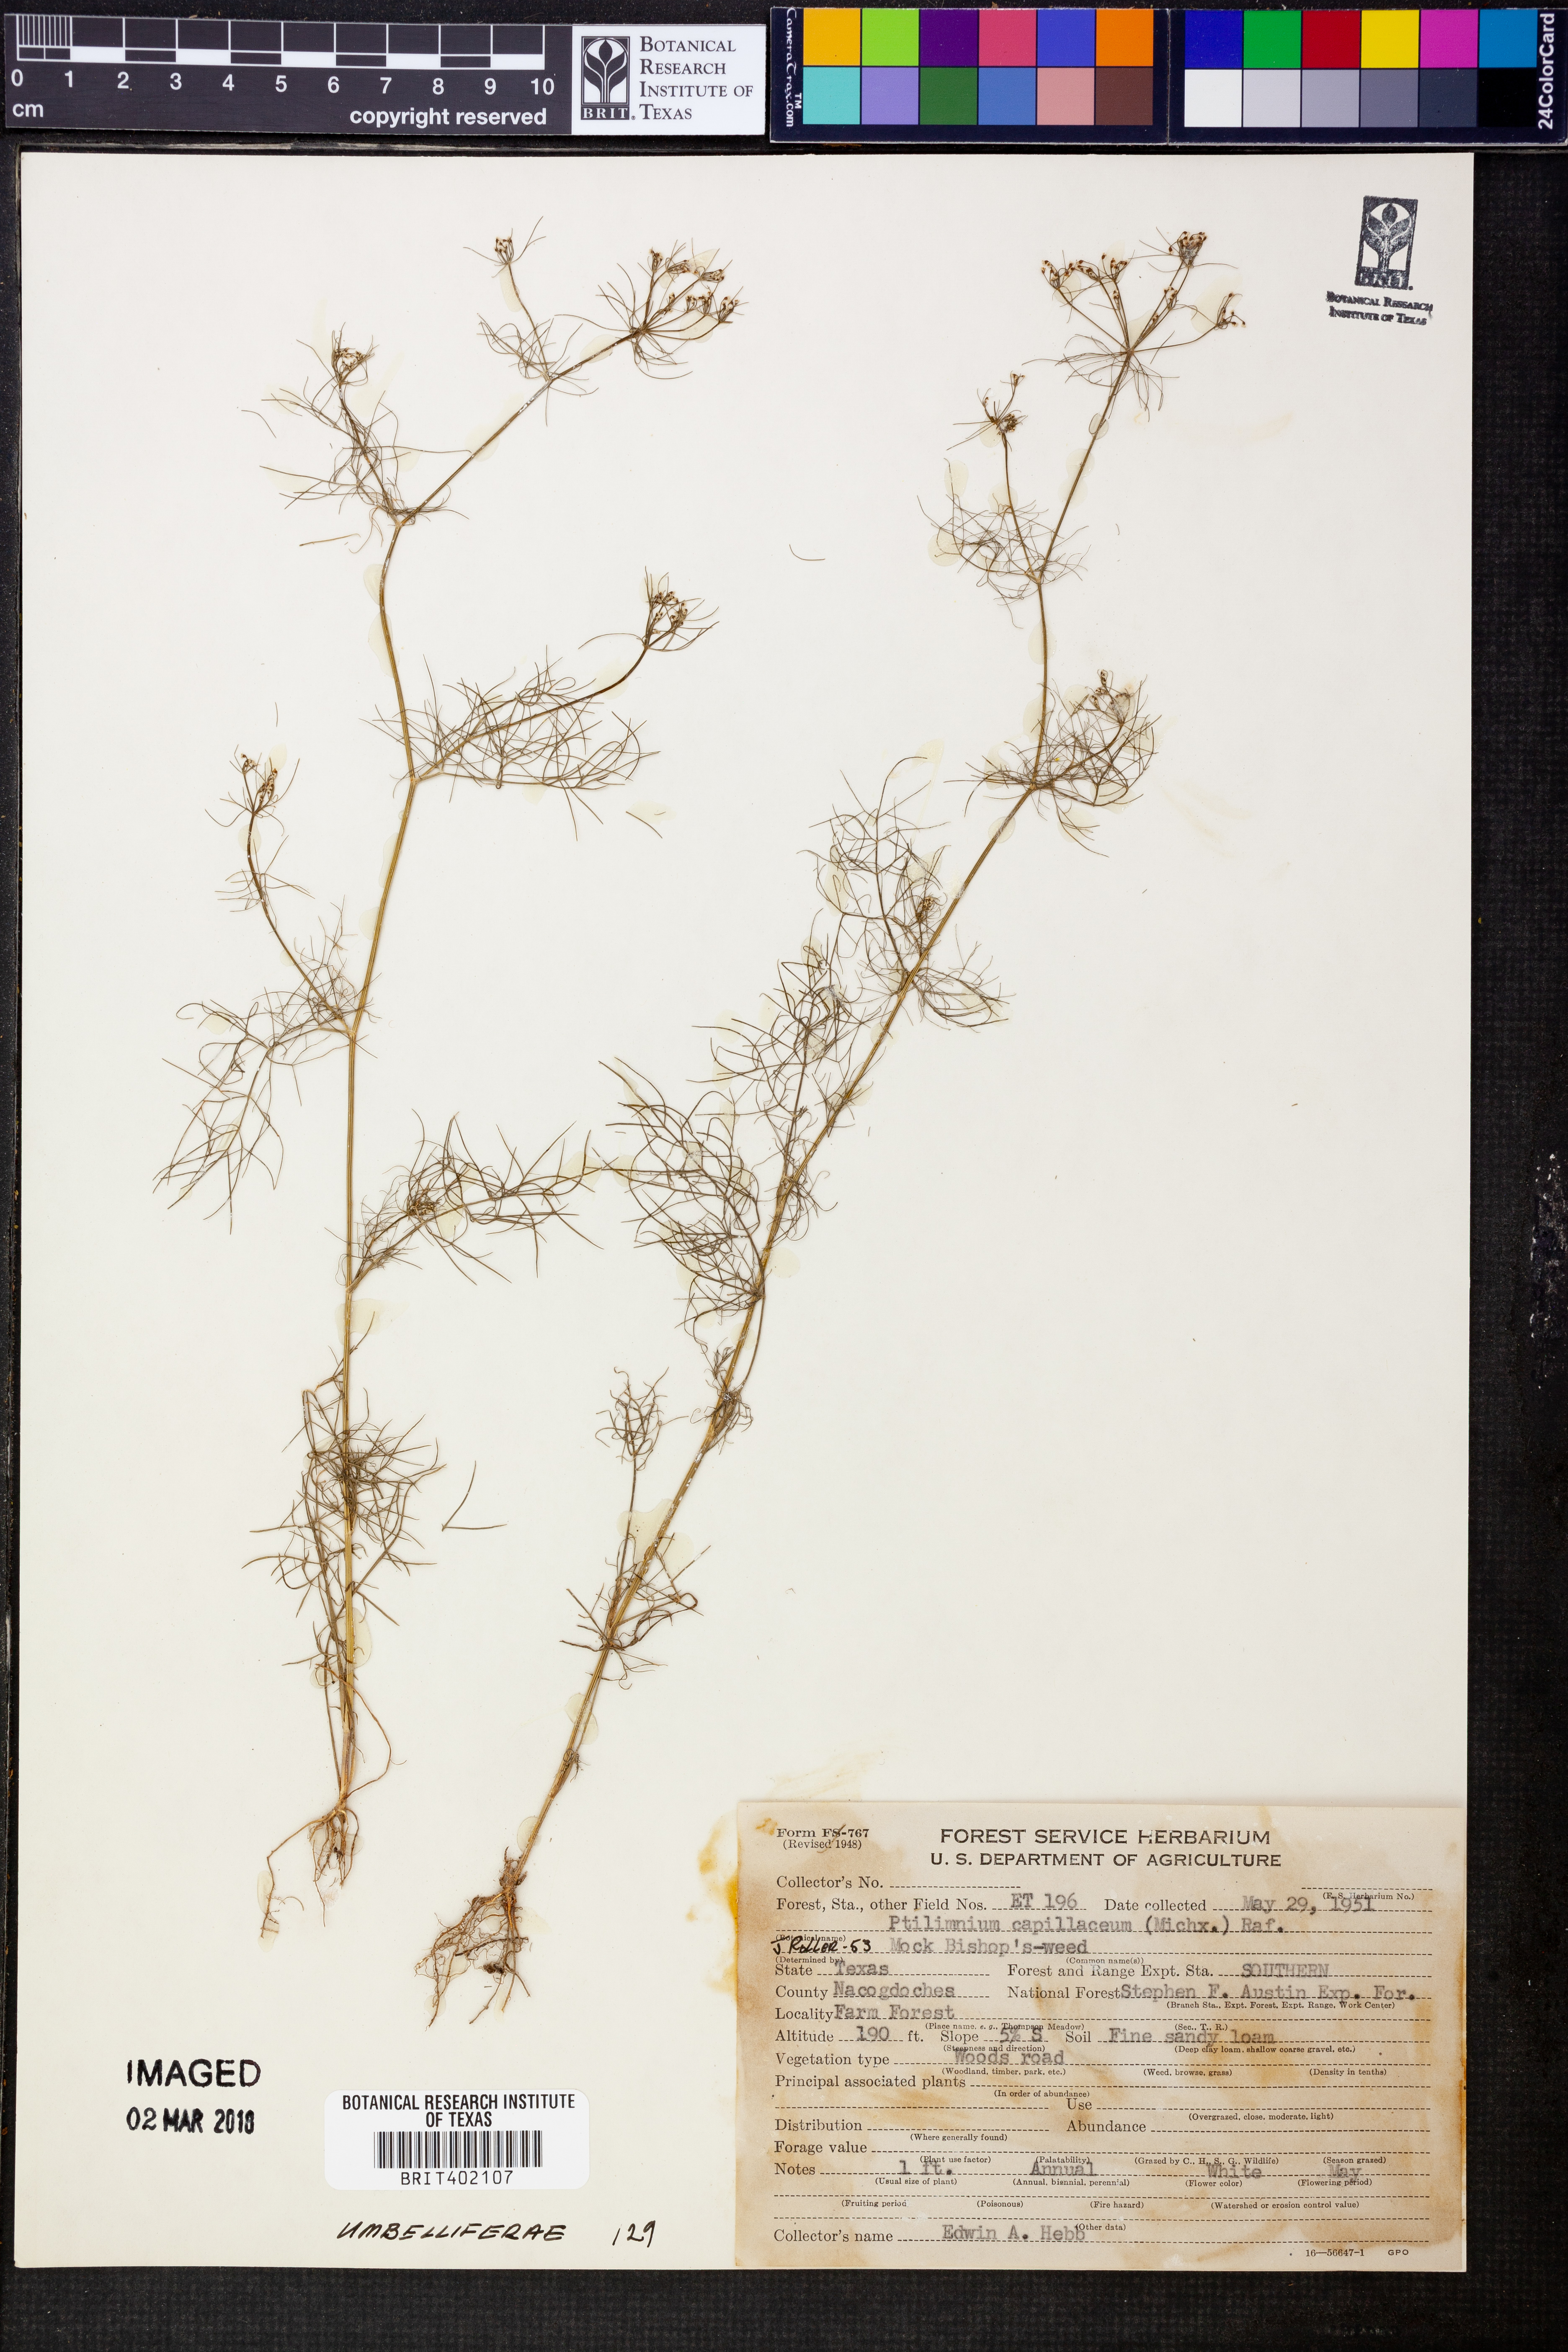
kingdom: Plantae
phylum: Tracheophyta
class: Magnoliopsida
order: Apiales
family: Apiaceae
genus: Ptilimnium
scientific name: Ptilimnium capillaceum
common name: Herbwilliam
